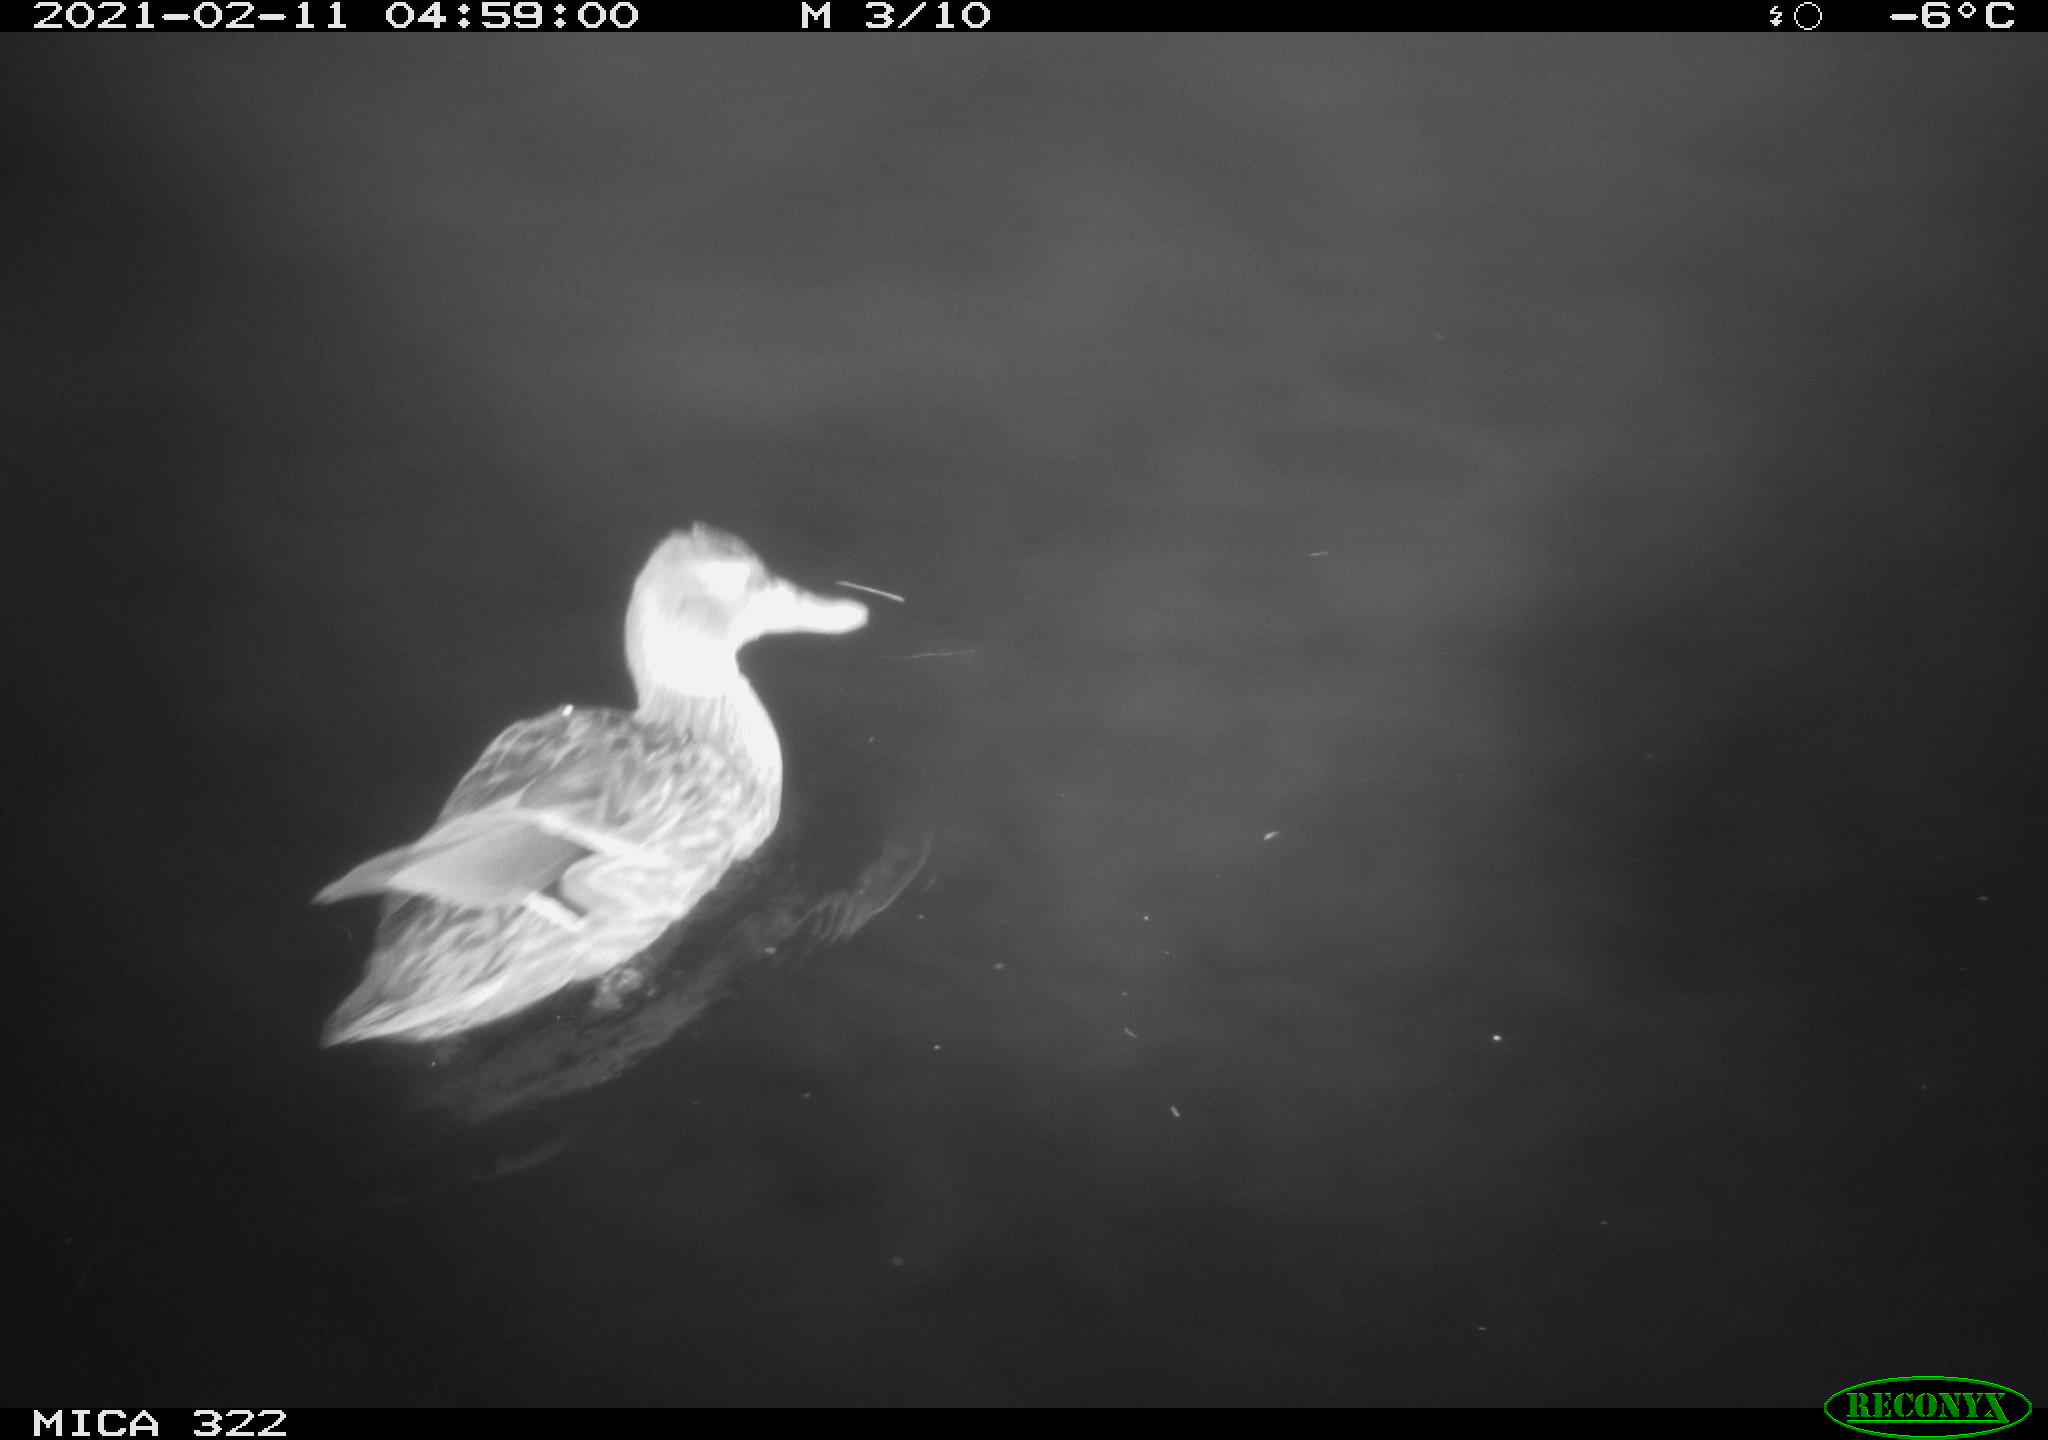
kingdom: Animalia
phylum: Chordata
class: Aves
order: Anseriformes
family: Anatidae
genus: Mareca
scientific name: Mareca strepera
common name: Gadwall
